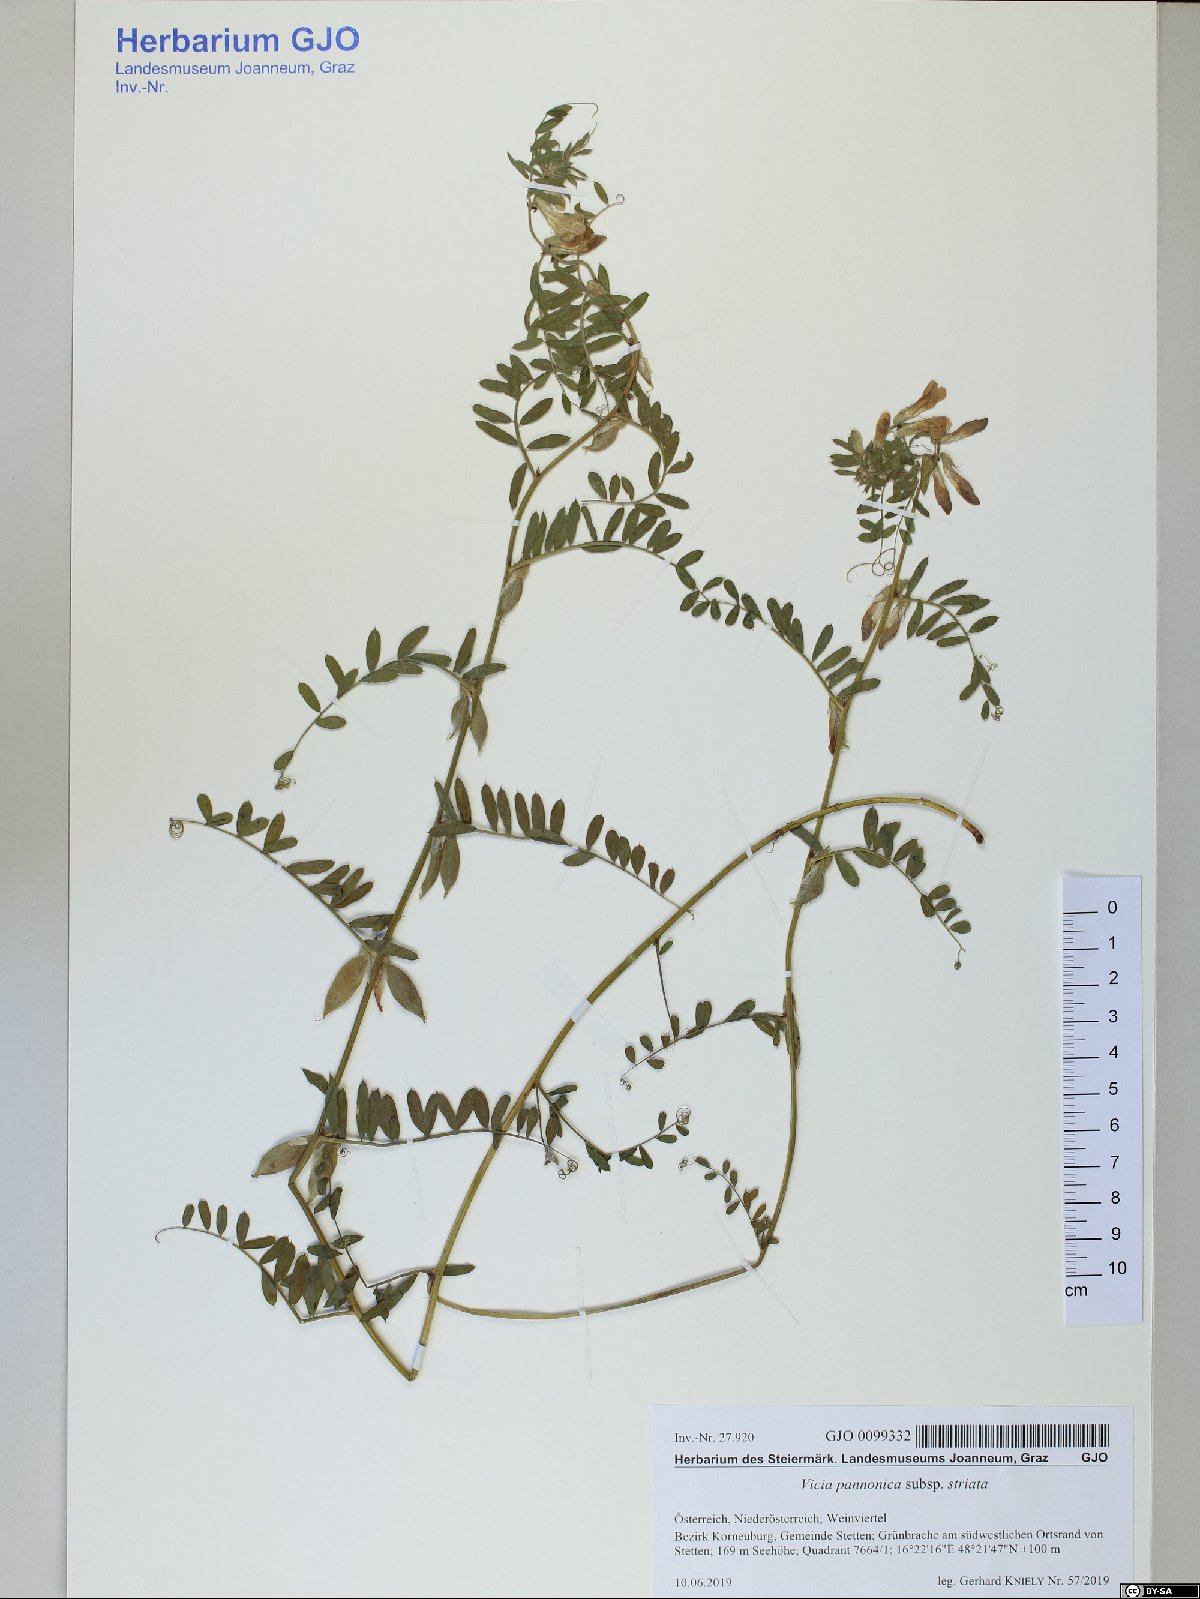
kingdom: Plantae
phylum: Tracheophyta
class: Magnoliopsida
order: Fabales
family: Fabaceae
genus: Vicia
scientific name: Vicia pannonica
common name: Hungarian vetch
